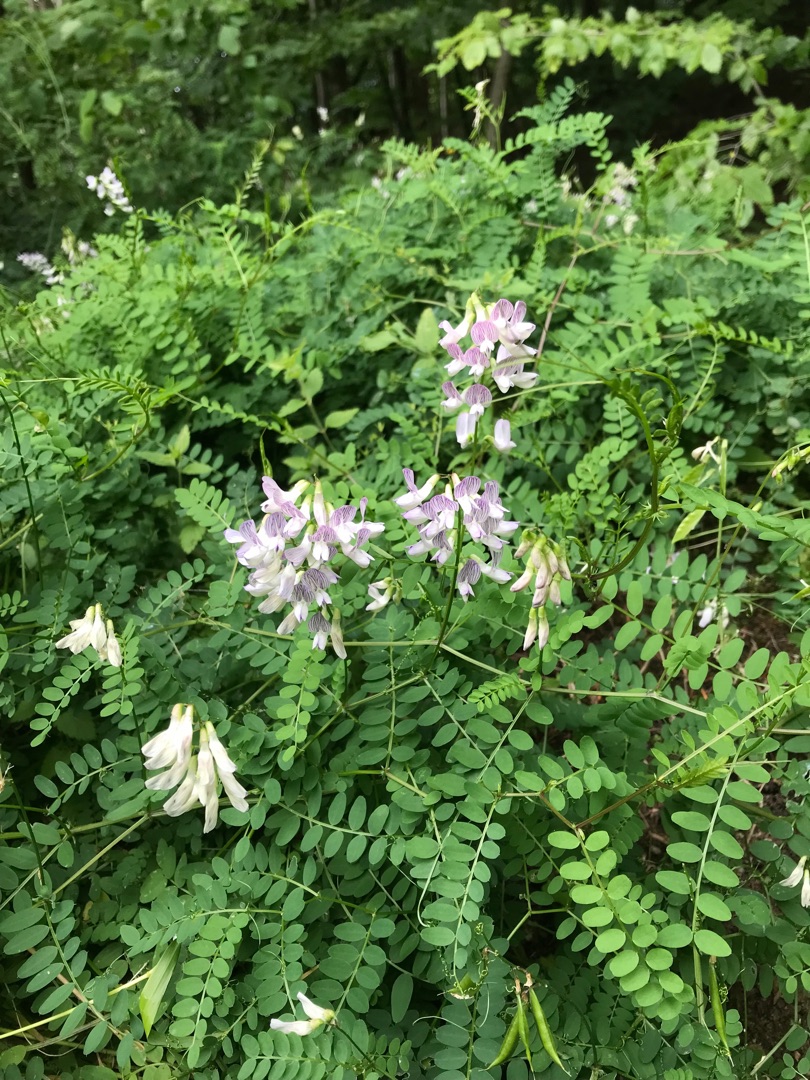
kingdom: Plantae
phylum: Tracheophyta
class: Magnoliopsida
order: Fabales
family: Fabaceae
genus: Vicia
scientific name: Vicia sylvatica
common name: Skov-vikke
